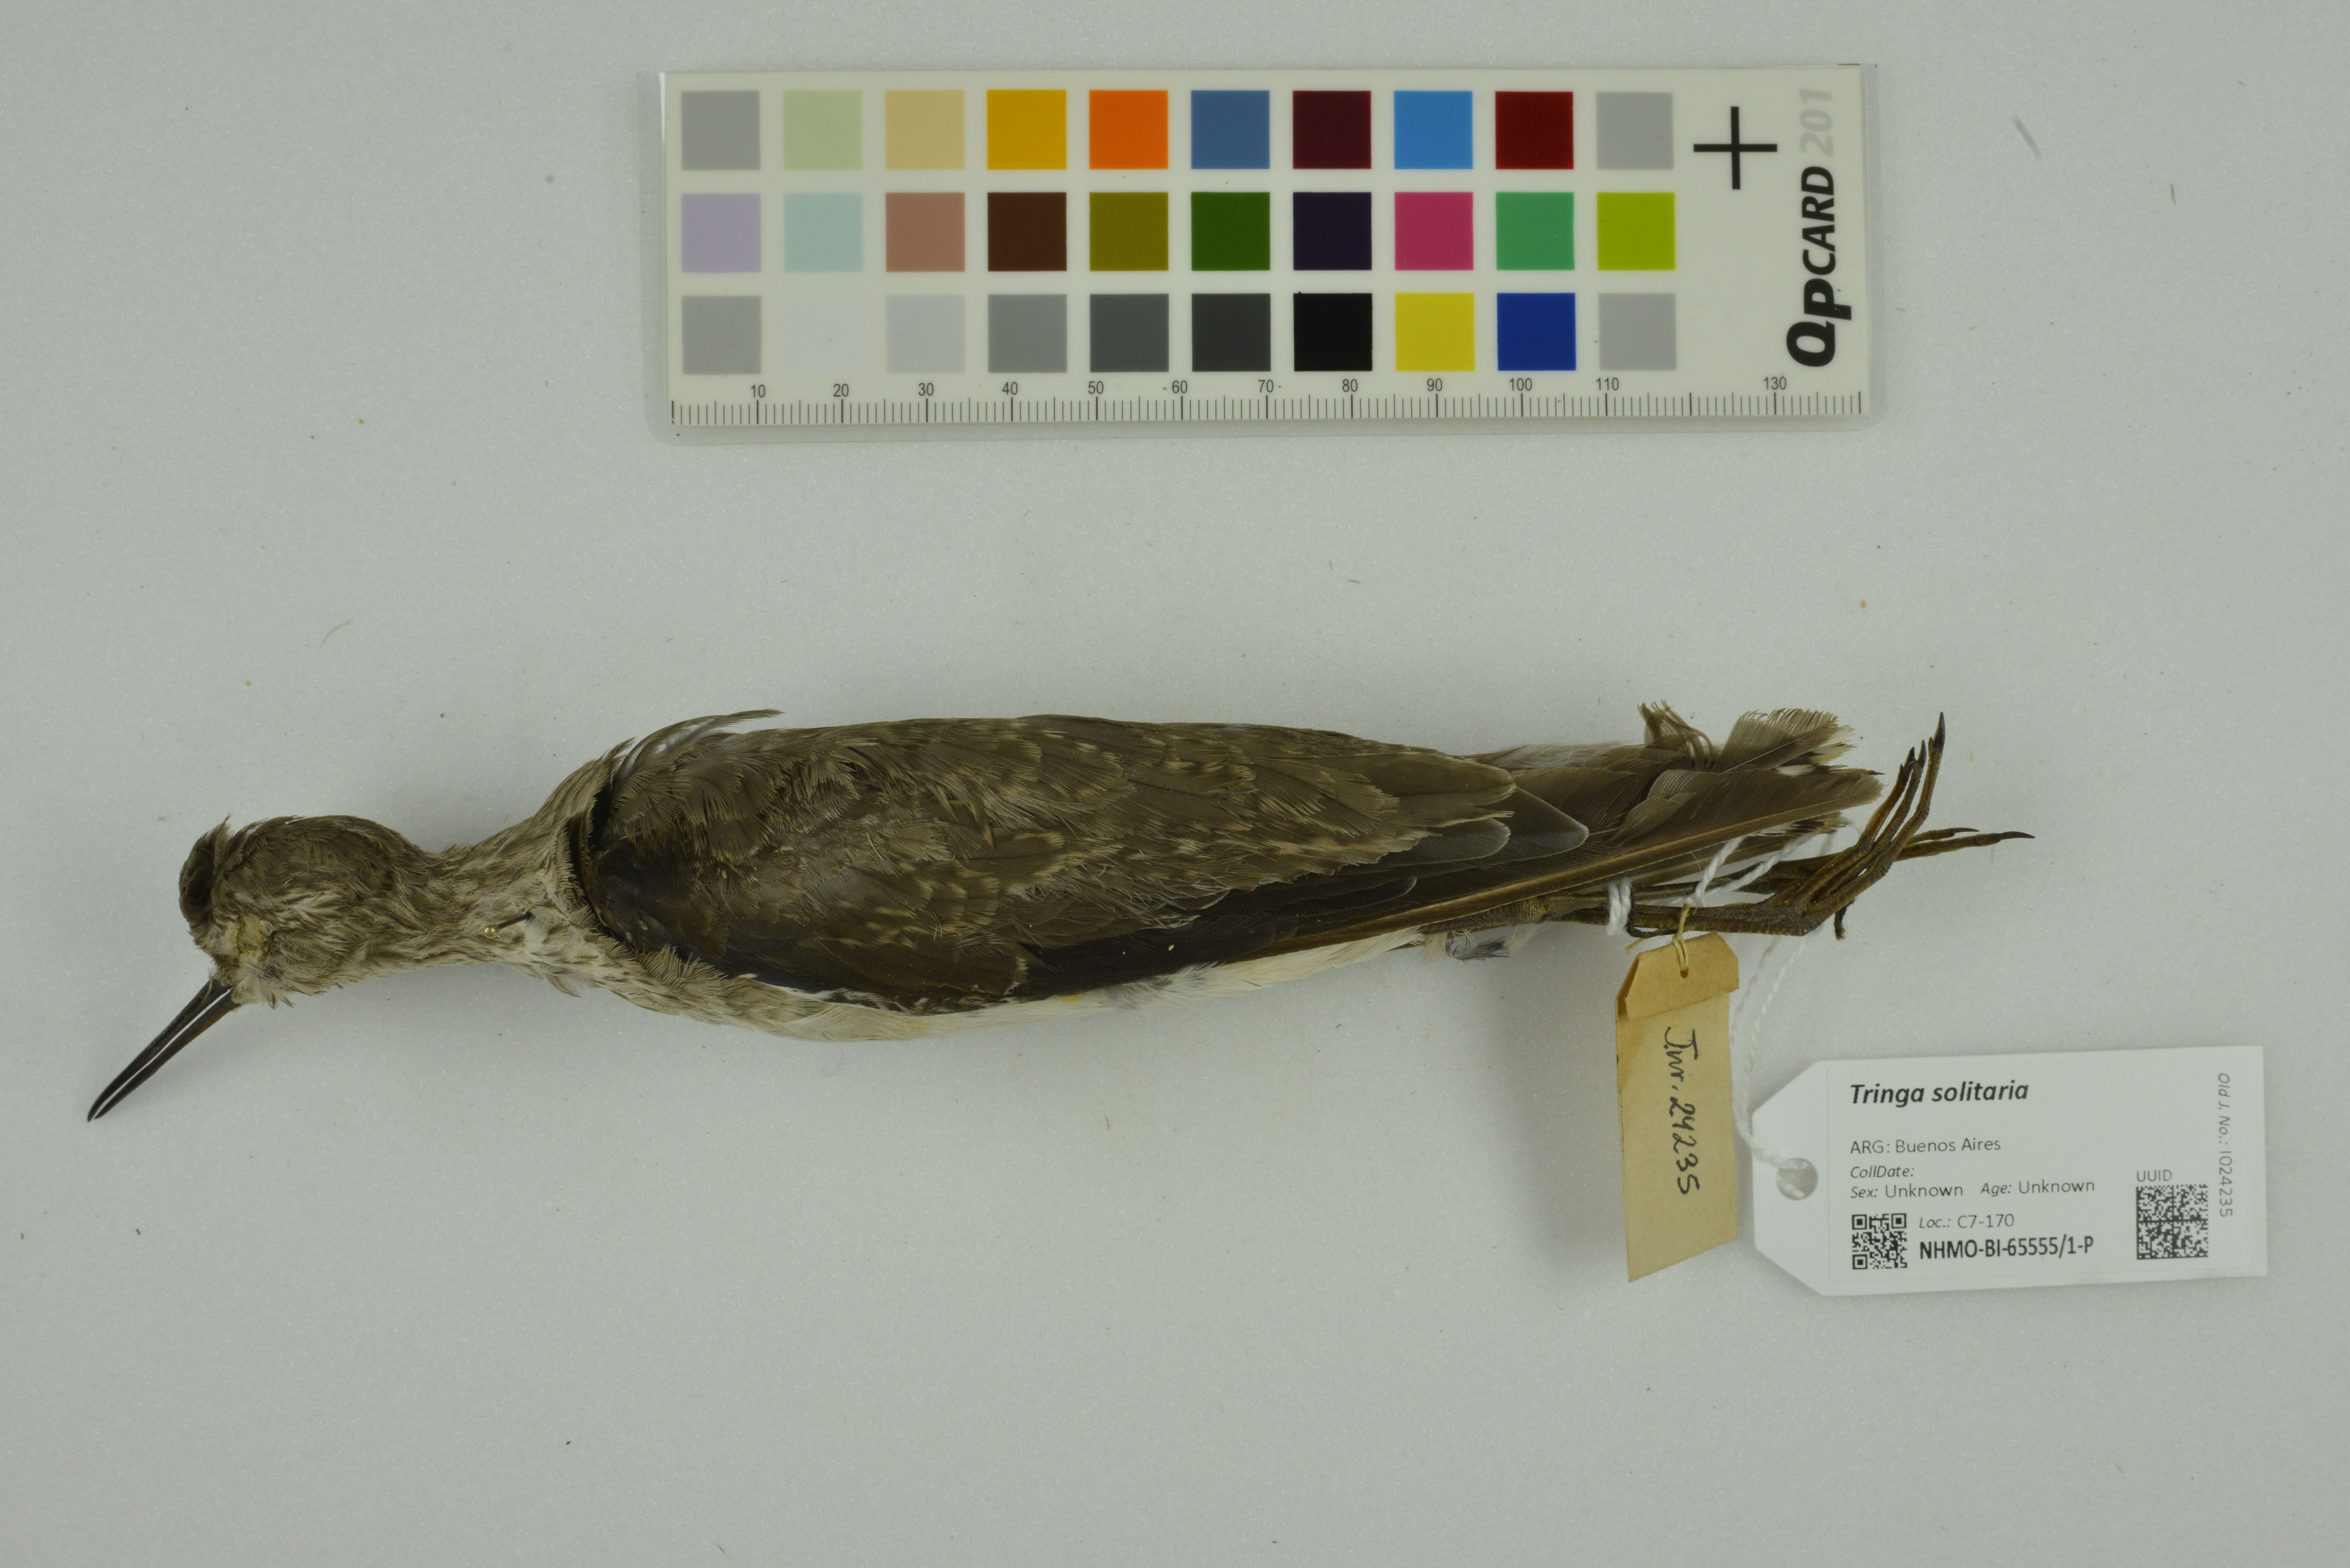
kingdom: Animalia
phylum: Chordata
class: Aves
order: Charadriiformes
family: Scolopacidae
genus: Tringa
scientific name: Tringa solitaria
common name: Solitary sandpiper
